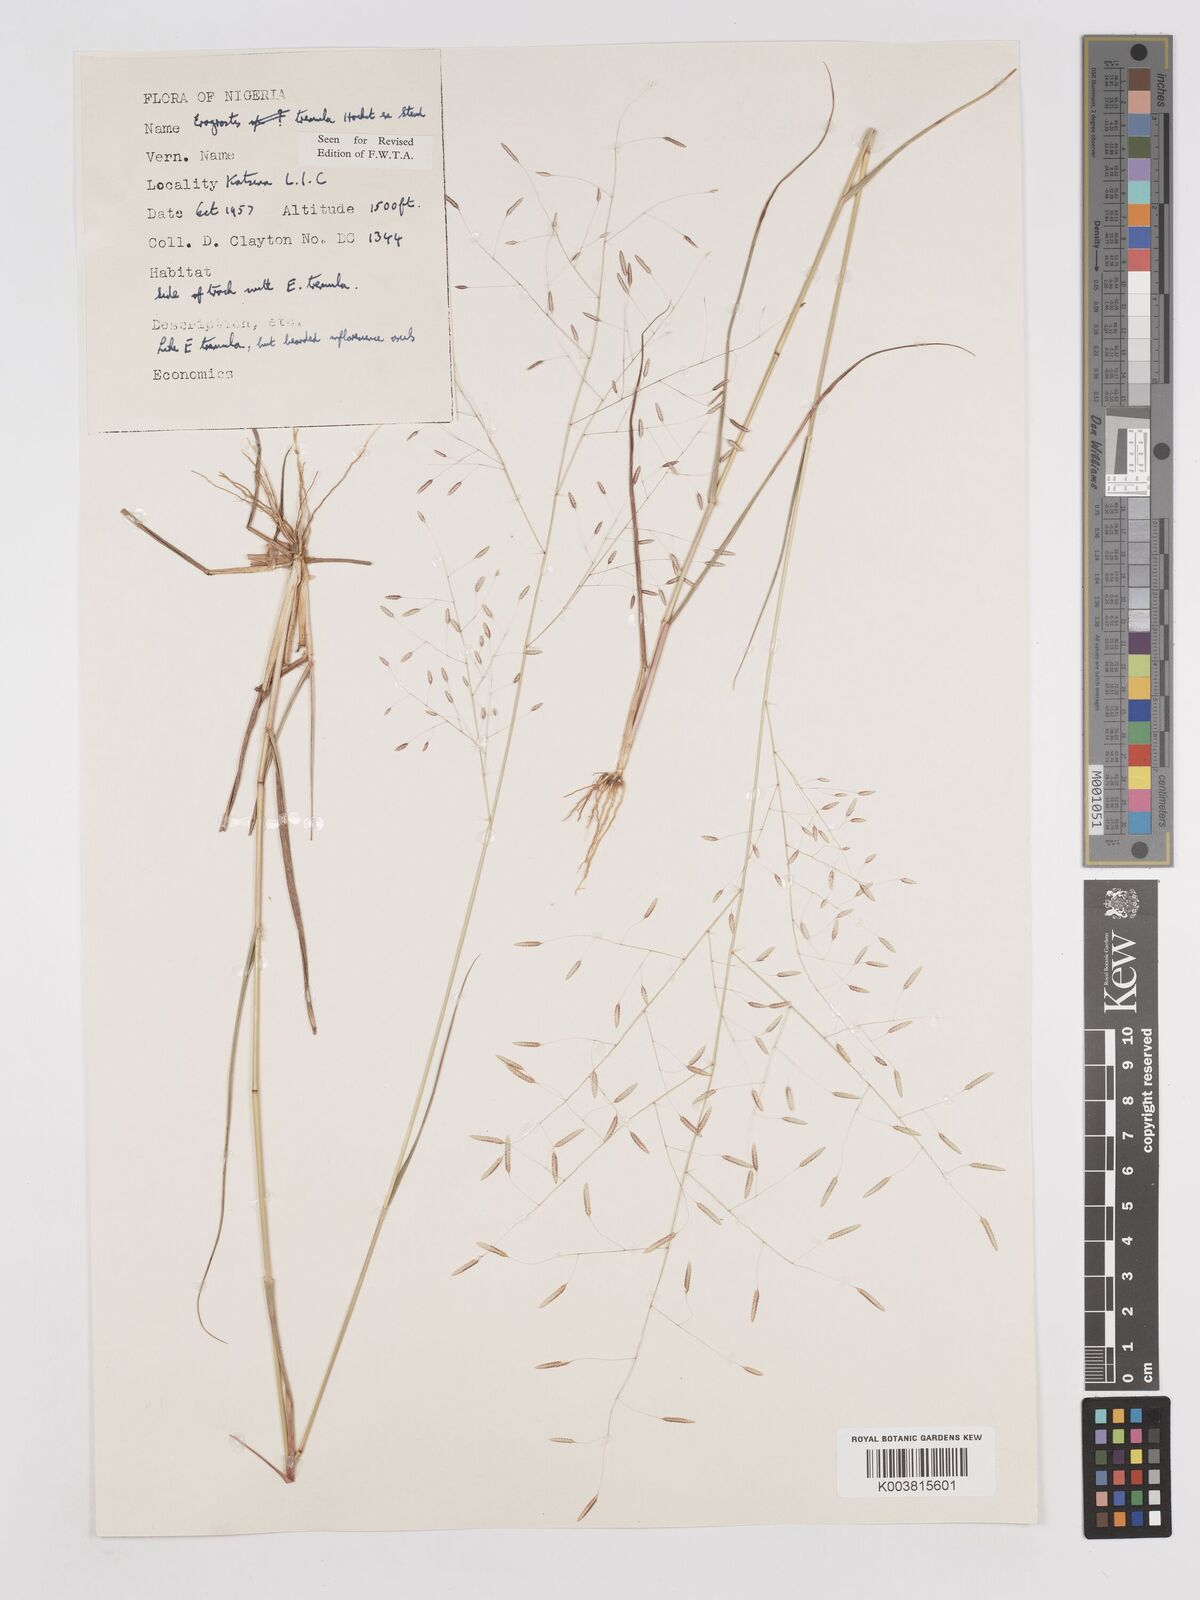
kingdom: Plantae
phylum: Tracheophyta
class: Liliopsida
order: Poales
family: Poaceae
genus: Eragrostis
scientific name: Eragrostis tremula
